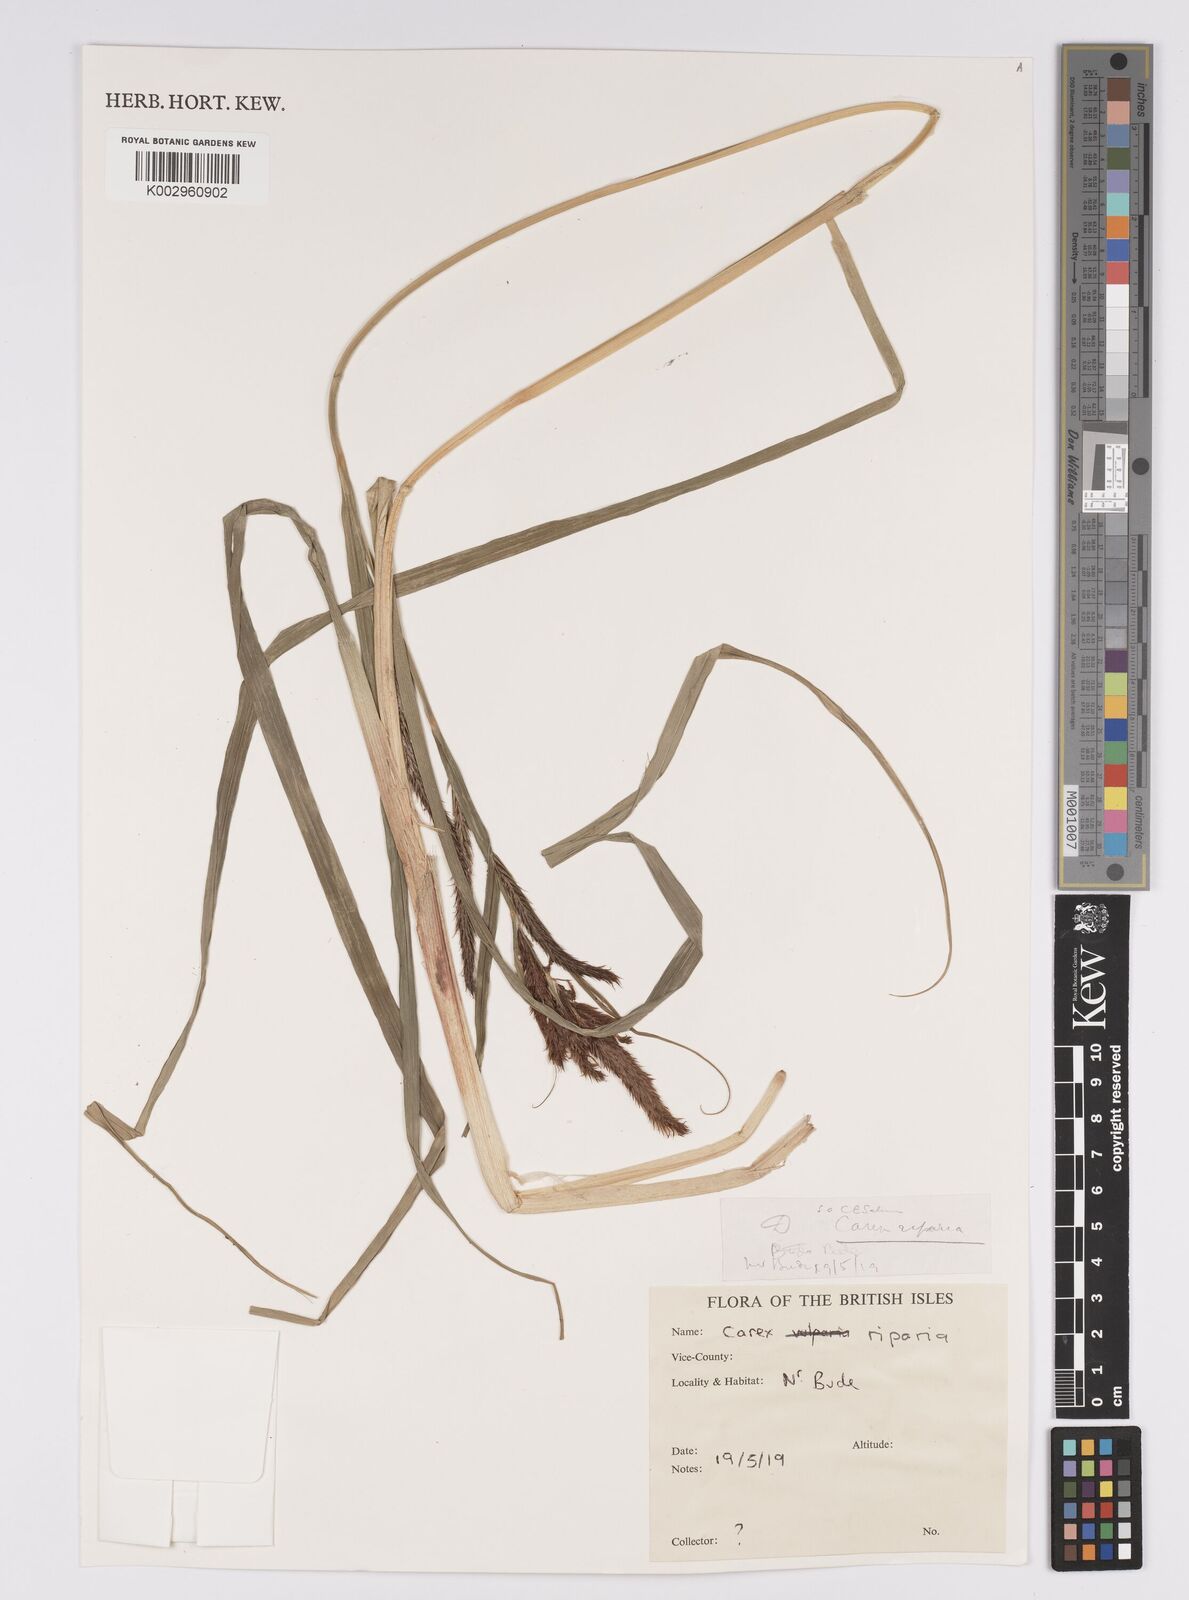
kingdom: Plantae
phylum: Tracheophyta
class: Liliopsida
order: Poales
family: Cyperaceae
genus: Carex
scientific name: Carex riparia
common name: Greater pond-sedge
